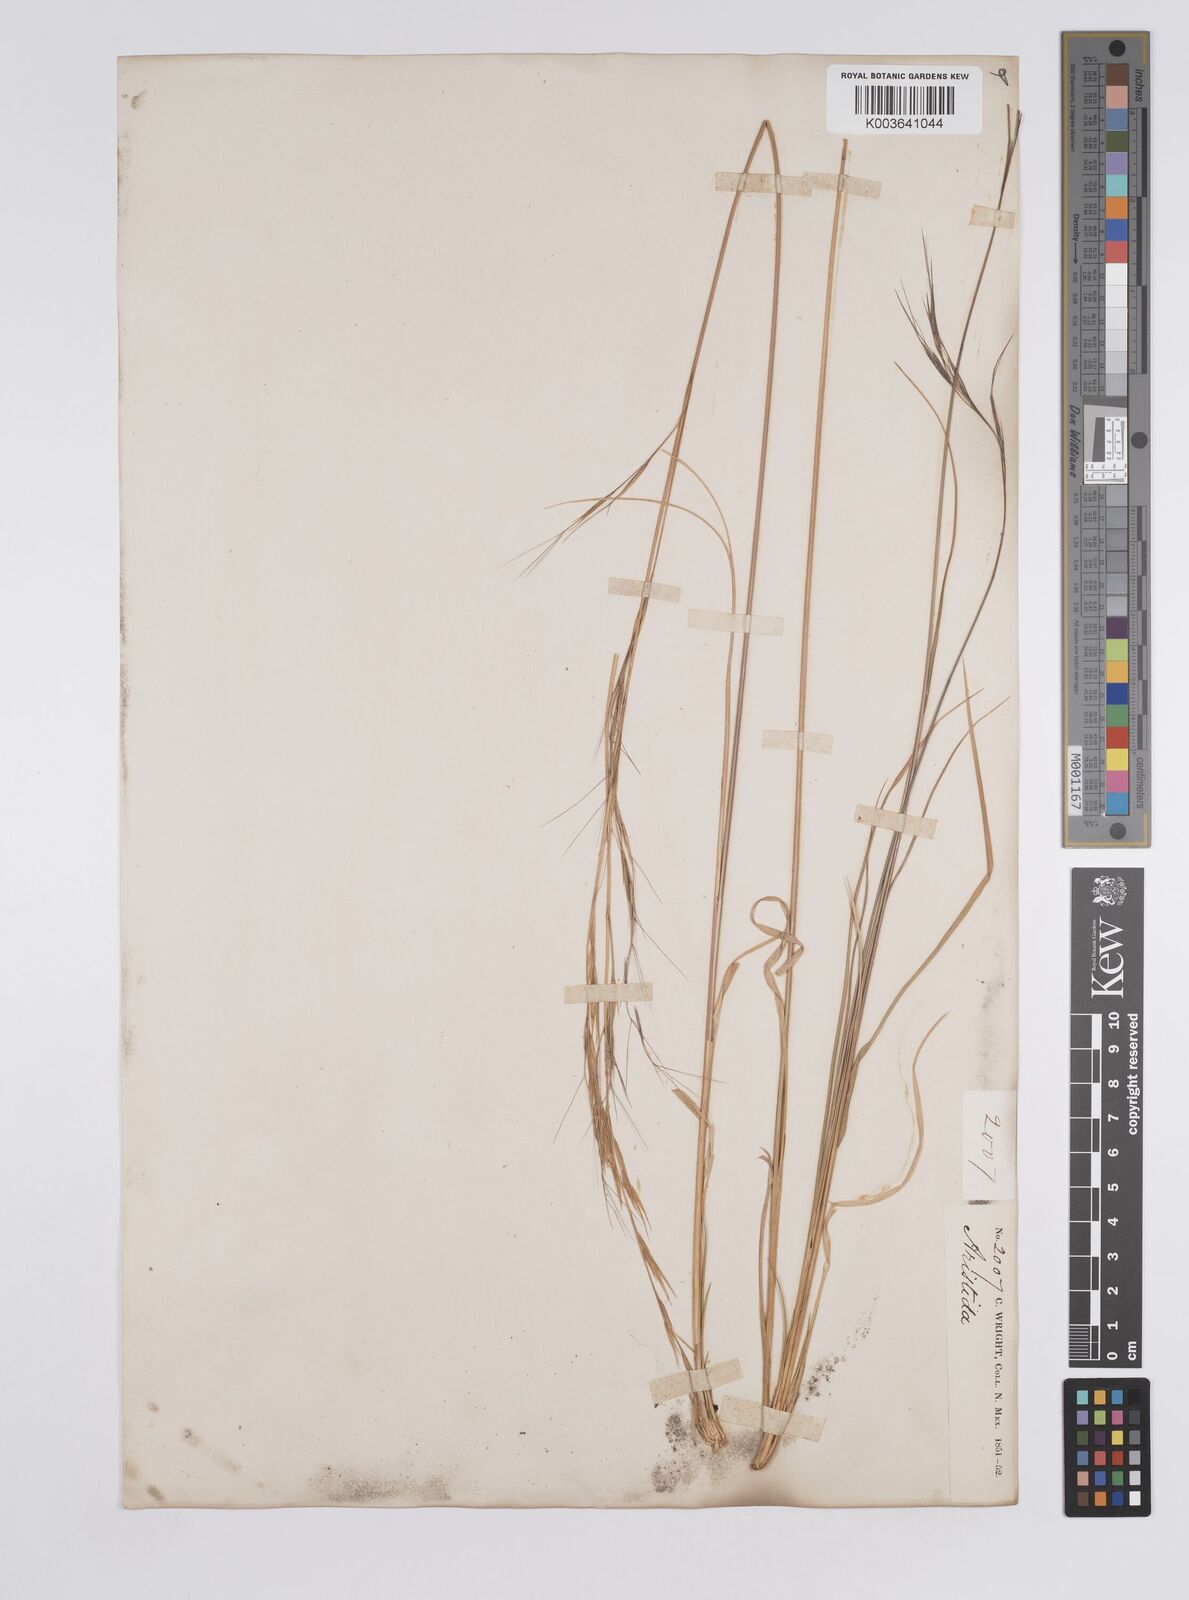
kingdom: Plantae
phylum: Tracheophyta
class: Liliopsida
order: Poales
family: Poaceae
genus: Aristida
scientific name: Aristida arizonica
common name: Arizona threeawn
